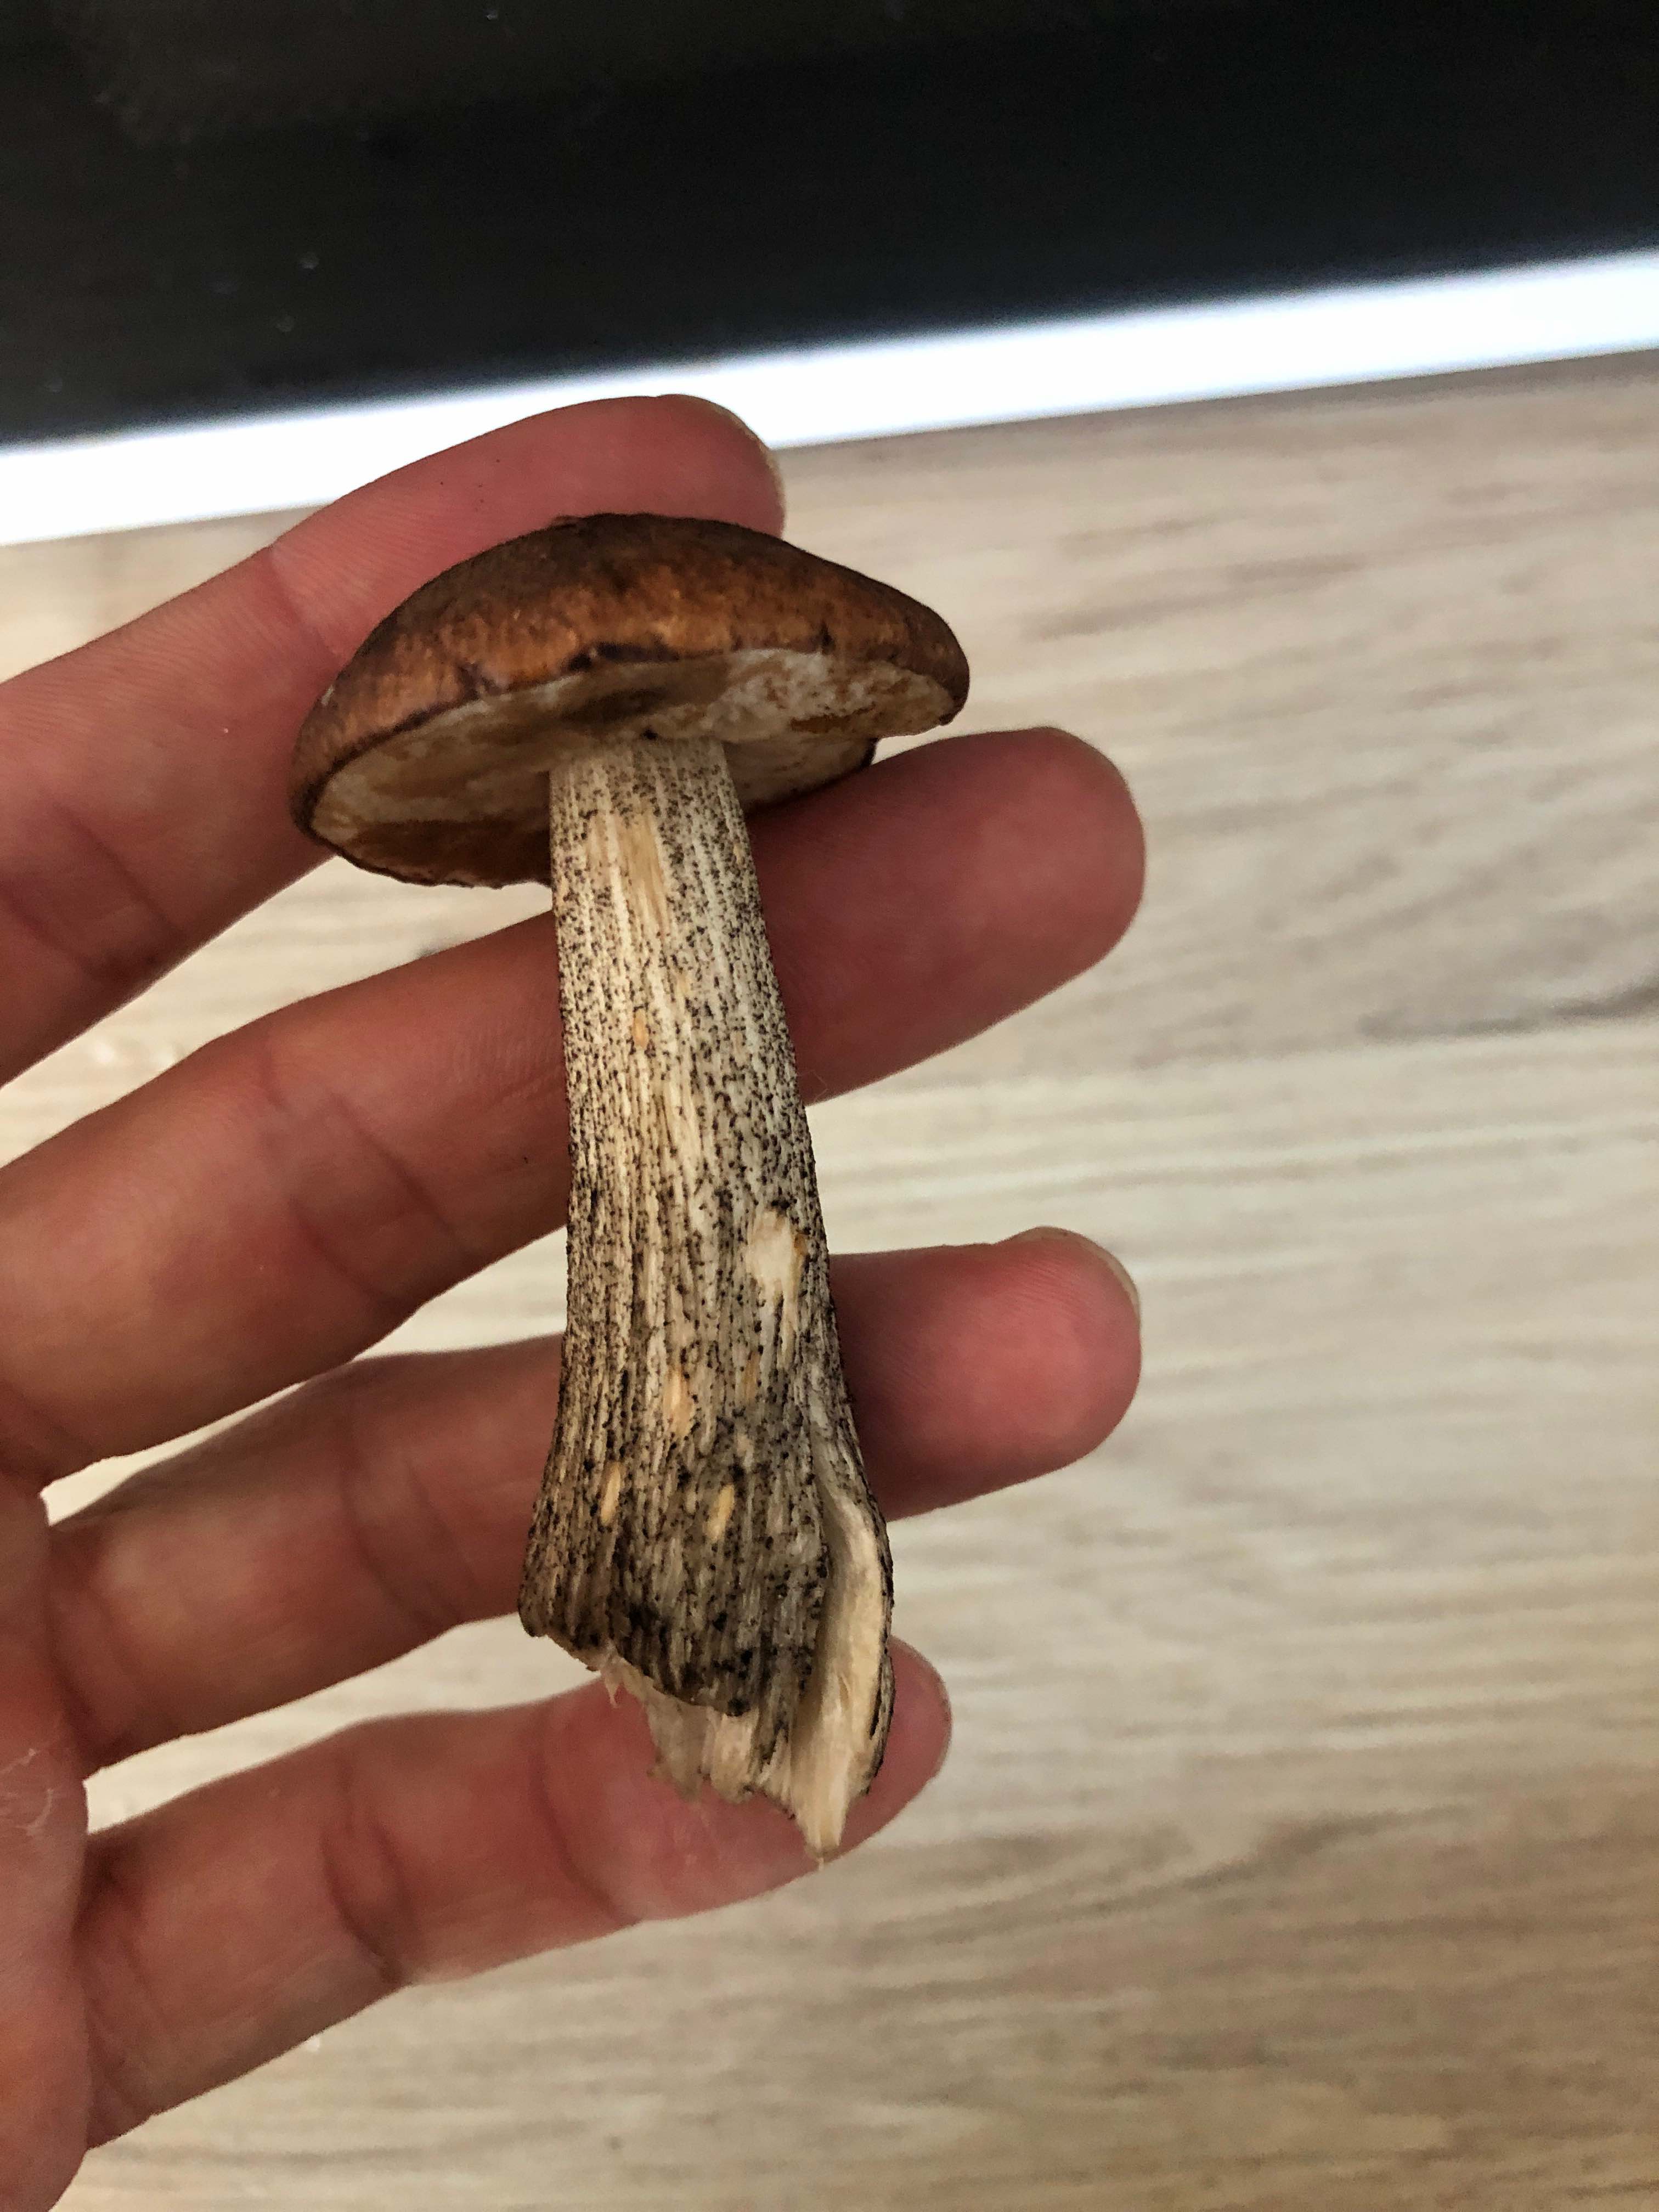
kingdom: Fungi
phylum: Basidiomycota
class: Agaricomycetes
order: Boletales
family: Boletaceae
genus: Leccinum
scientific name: Leccinum scabrum
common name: brun skælrørhat
